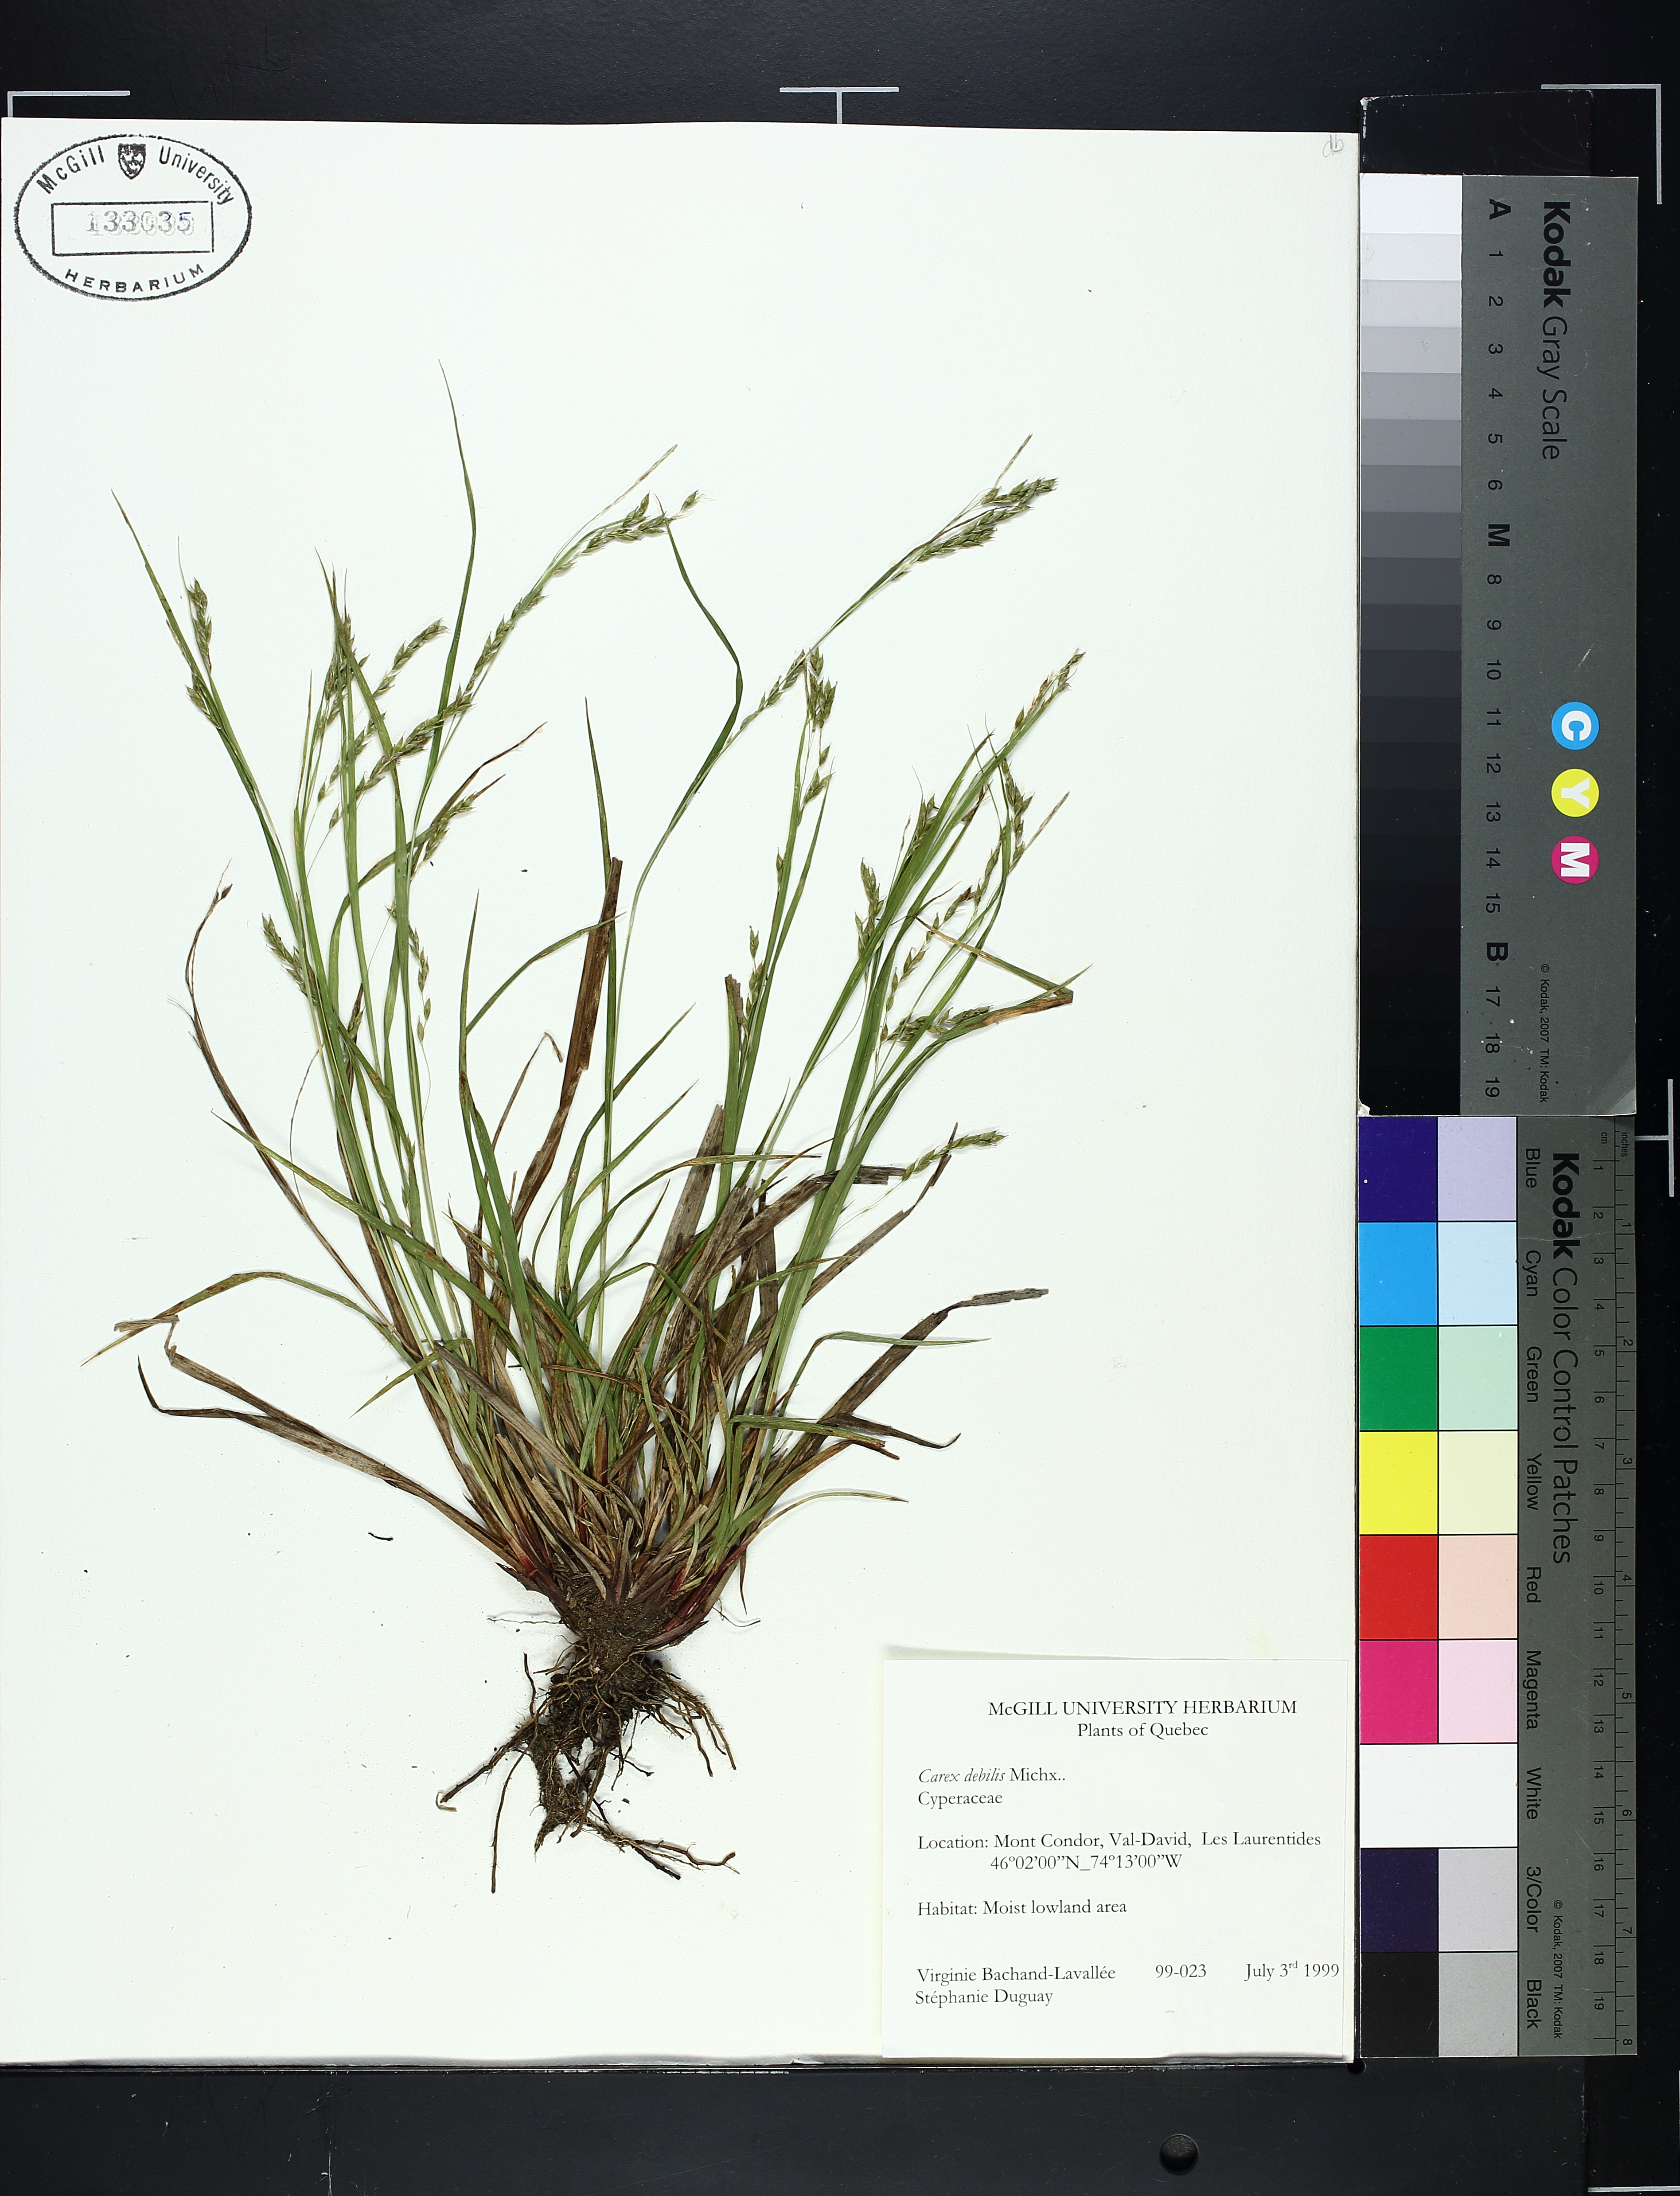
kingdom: Plantae
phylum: Tracheophyta
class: Liliopsida
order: Poales
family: Cyperaceae
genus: Carex
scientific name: Carex debilis
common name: White-edge sedge
